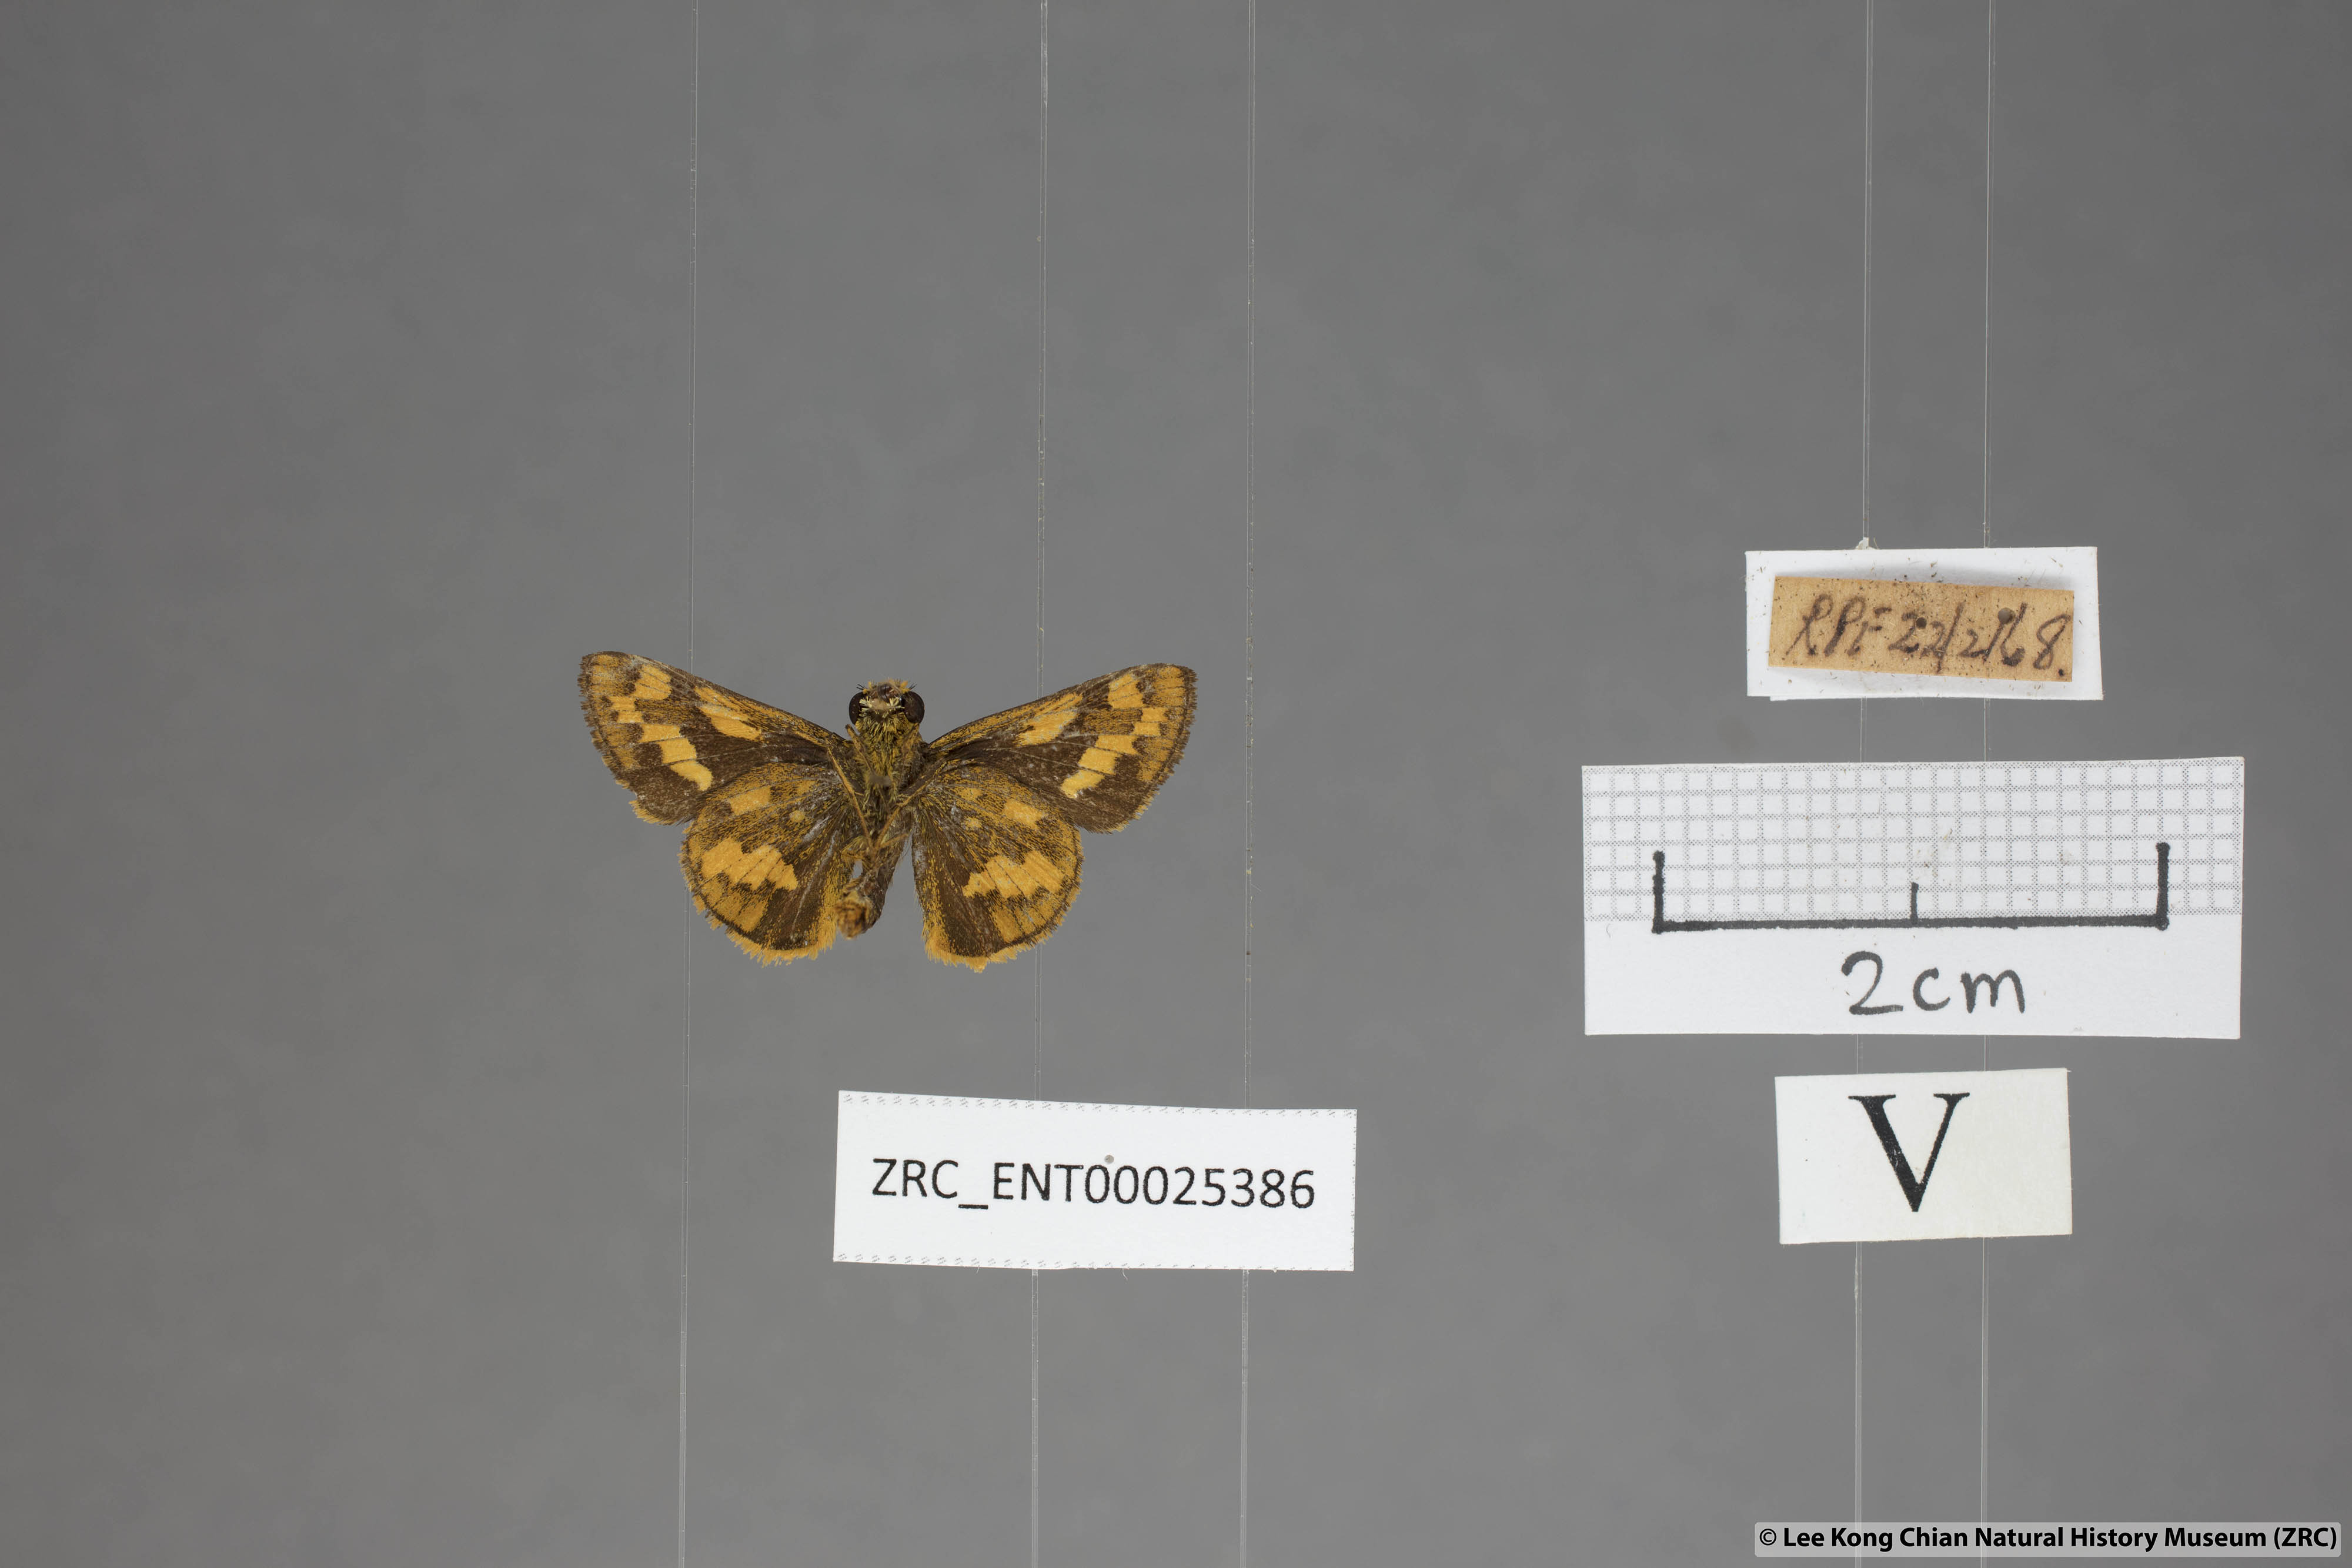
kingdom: Animalia
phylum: Arthropoda
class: Insecta
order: Lepidoptera
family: Hesperiidae
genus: Potanthus
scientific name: Potanthus ganda
